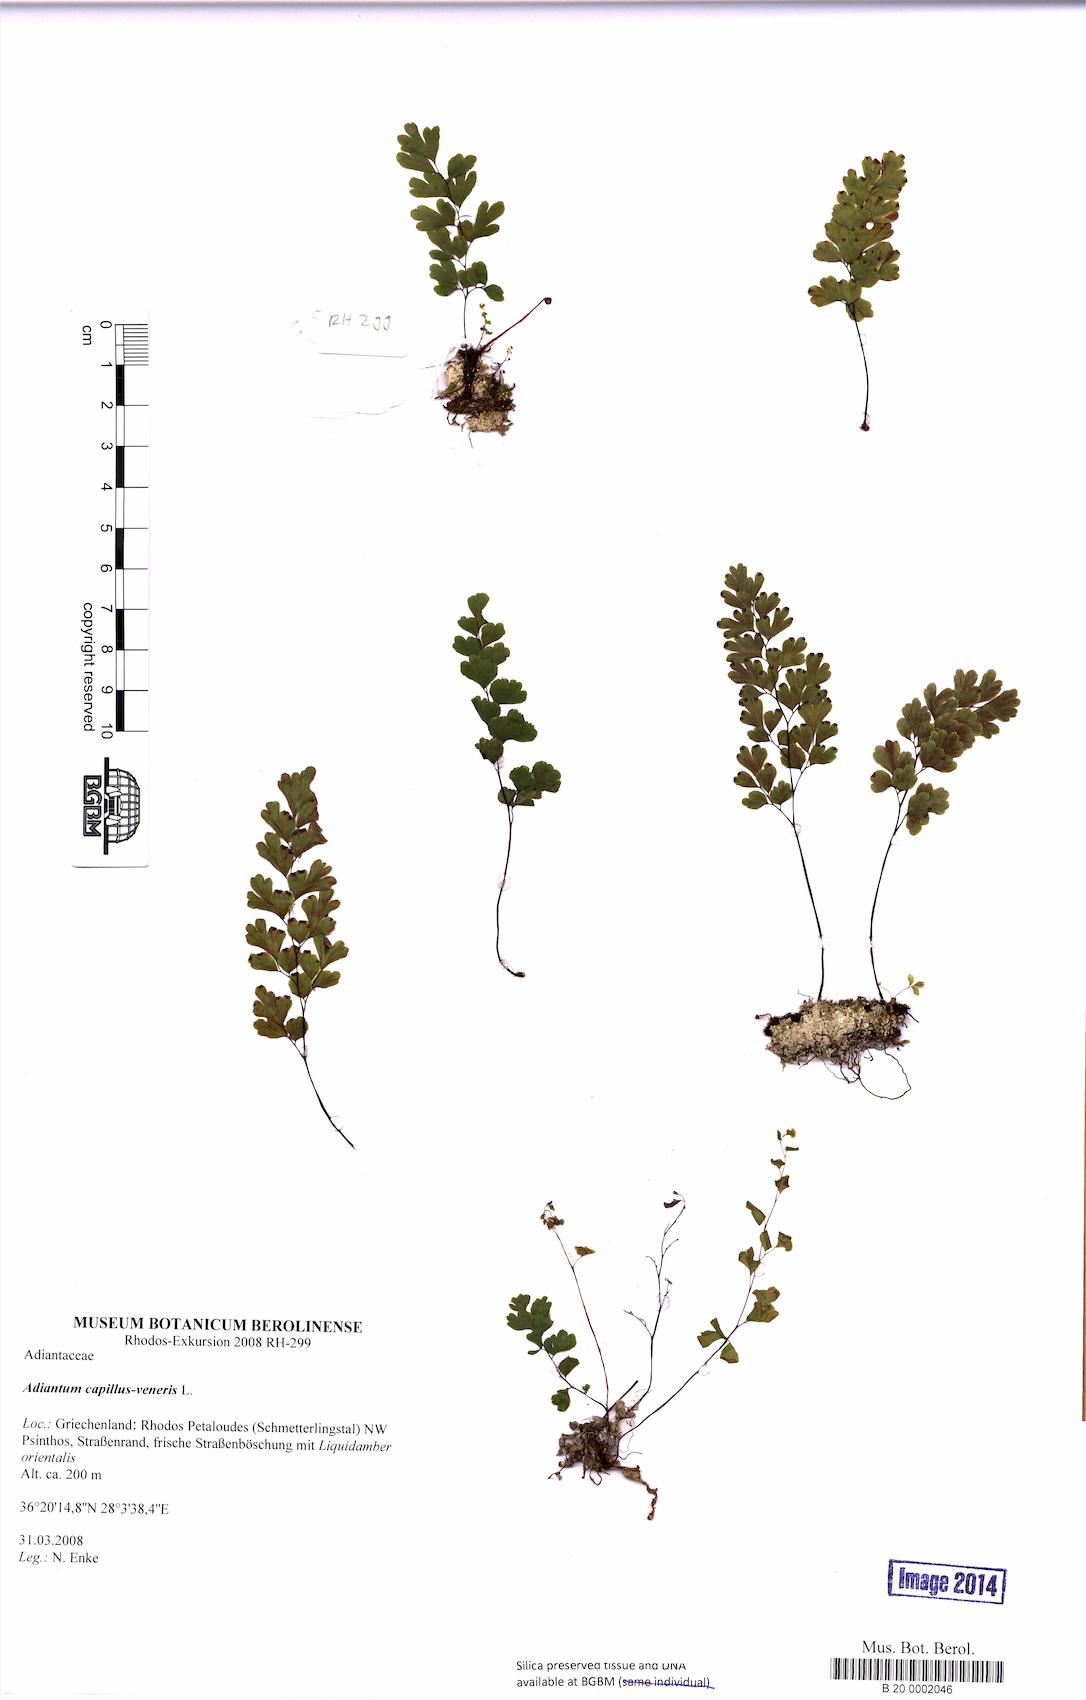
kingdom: Plantae
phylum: Tracheophyta
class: Polypodiopsida
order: Polypodiales
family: Pteridaceae
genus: Adiantum
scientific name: Adiantum capillus-veneris
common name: Maidenhair fern
